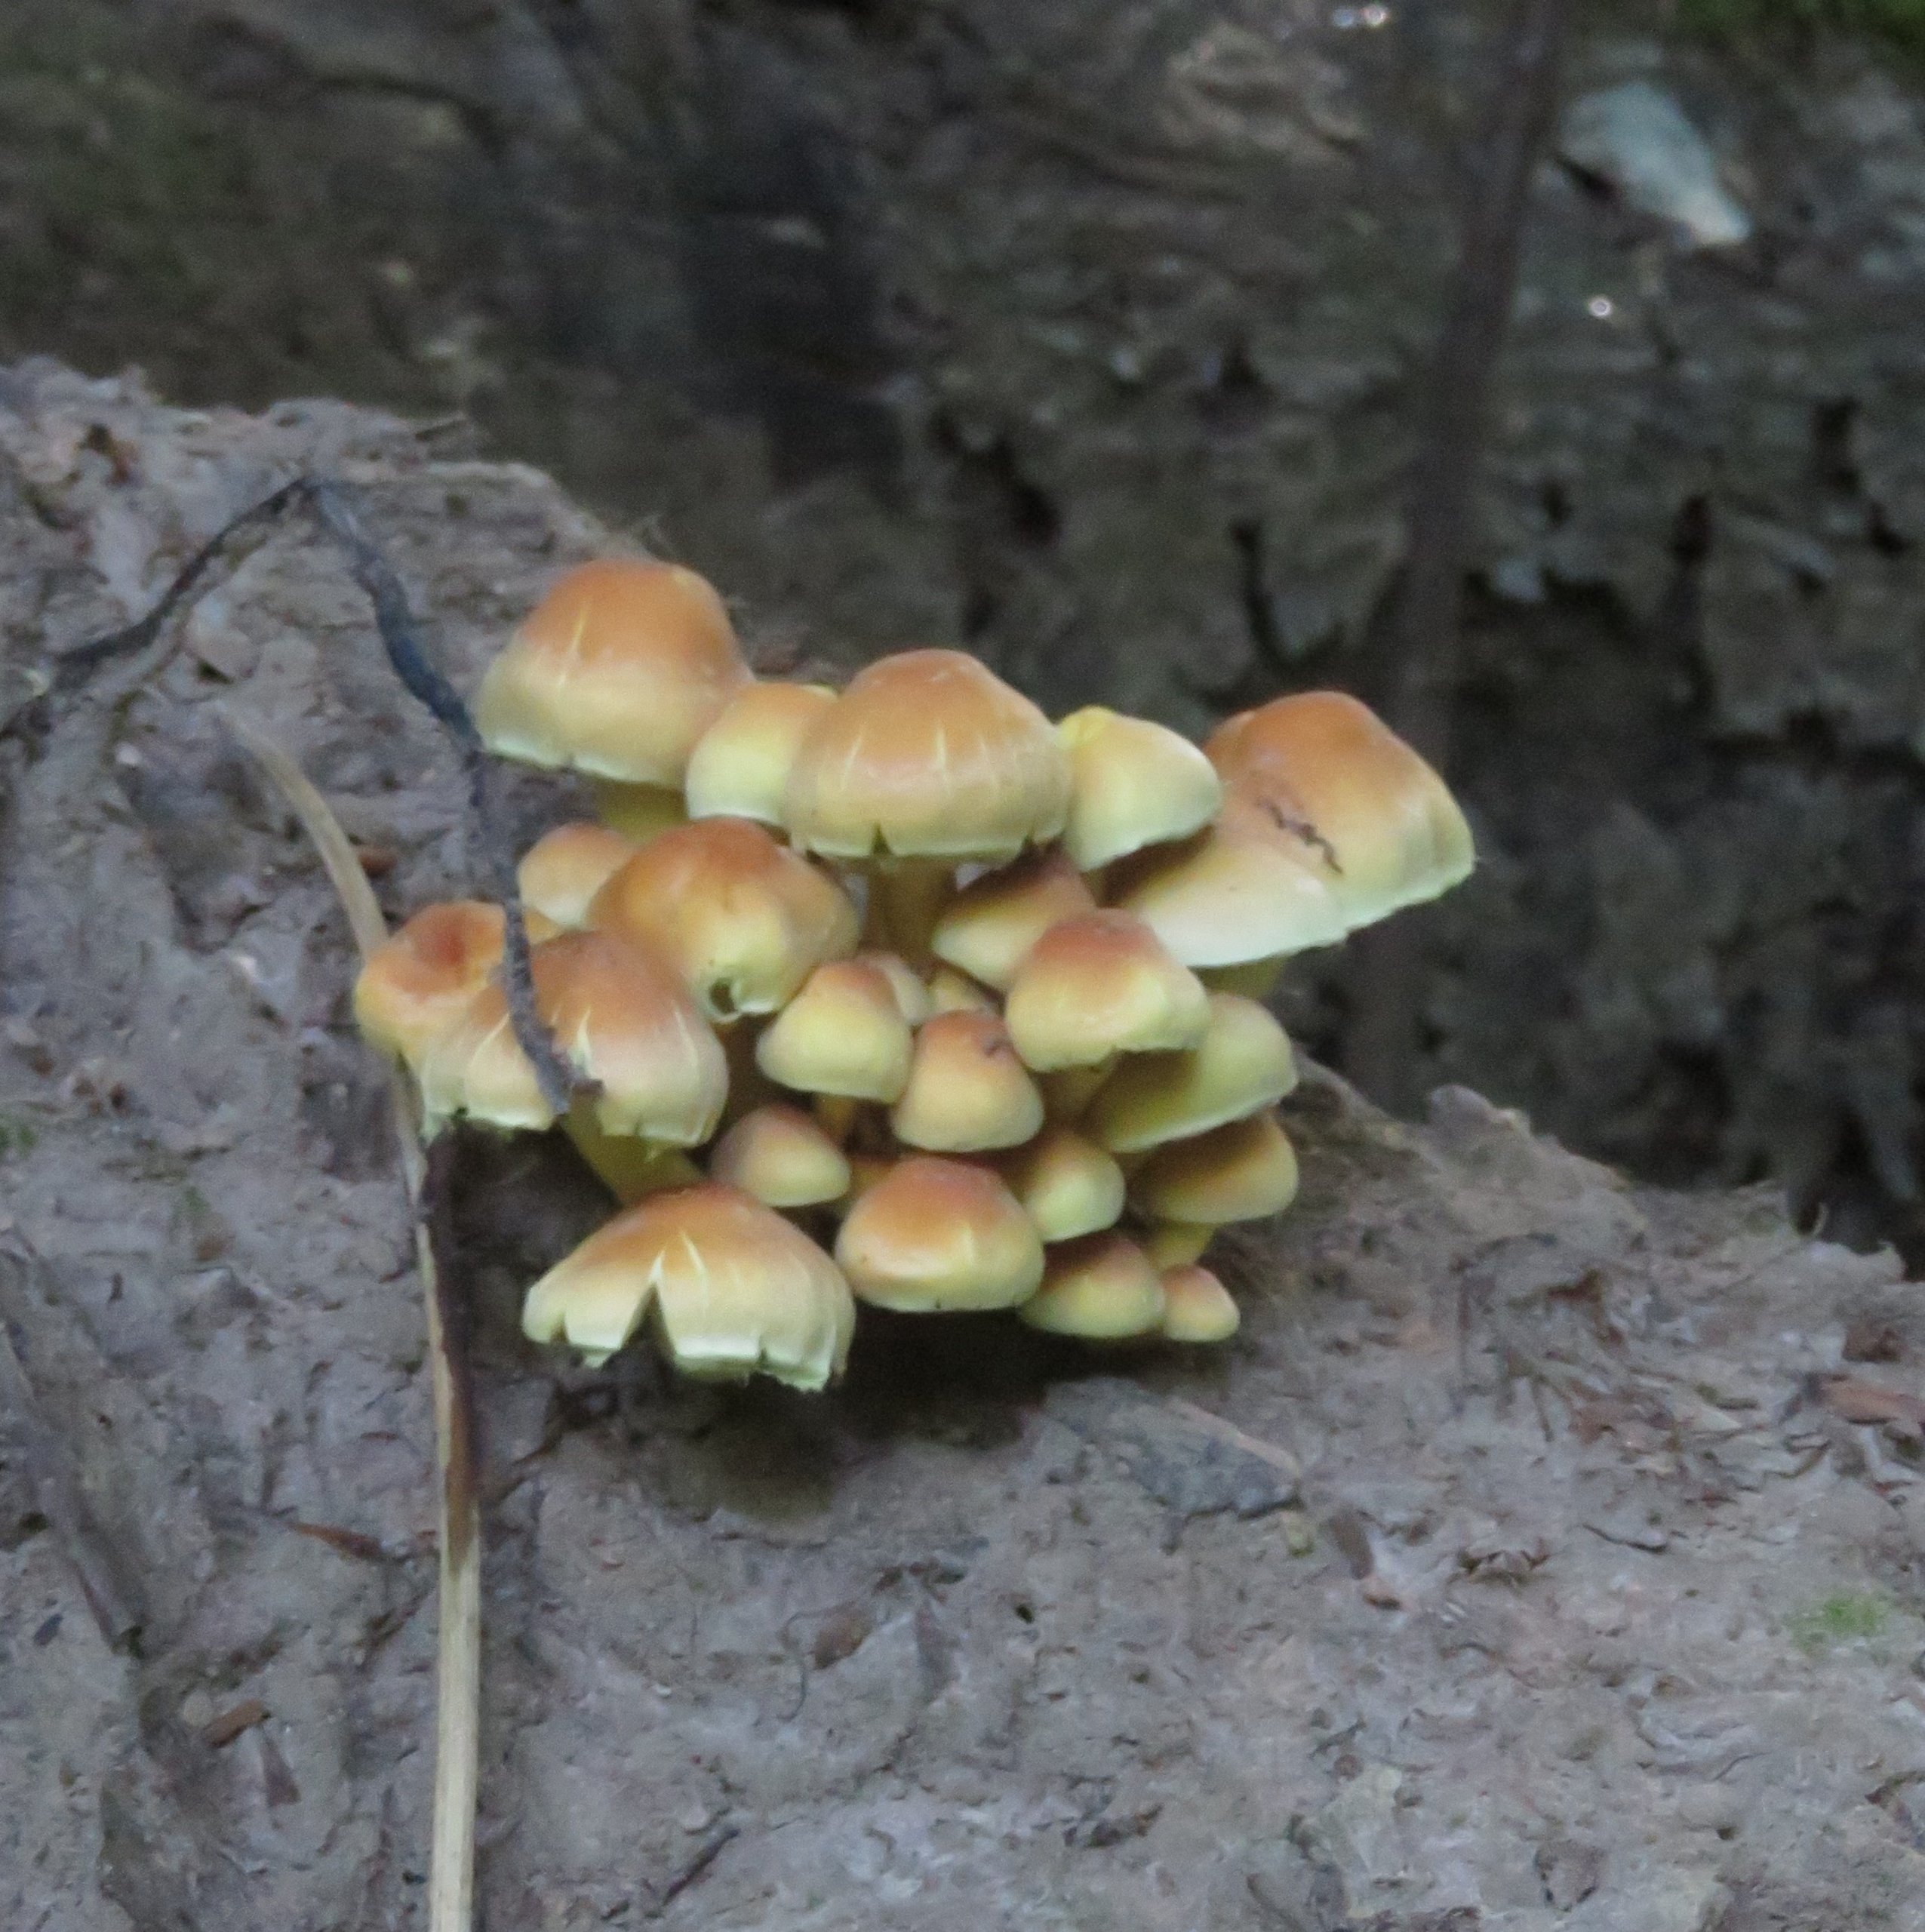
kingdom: Fungi
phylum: Basidiomycota
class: Agaricomycetes
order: Agaricales
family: Strophariaceae
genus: Hypholoma
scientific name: Hypholoma fasciculare
